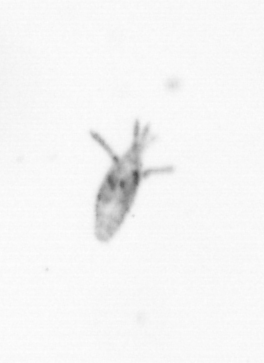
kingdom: Animalia
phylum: Arthropoda
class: Copepoda
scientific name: Copepoda
